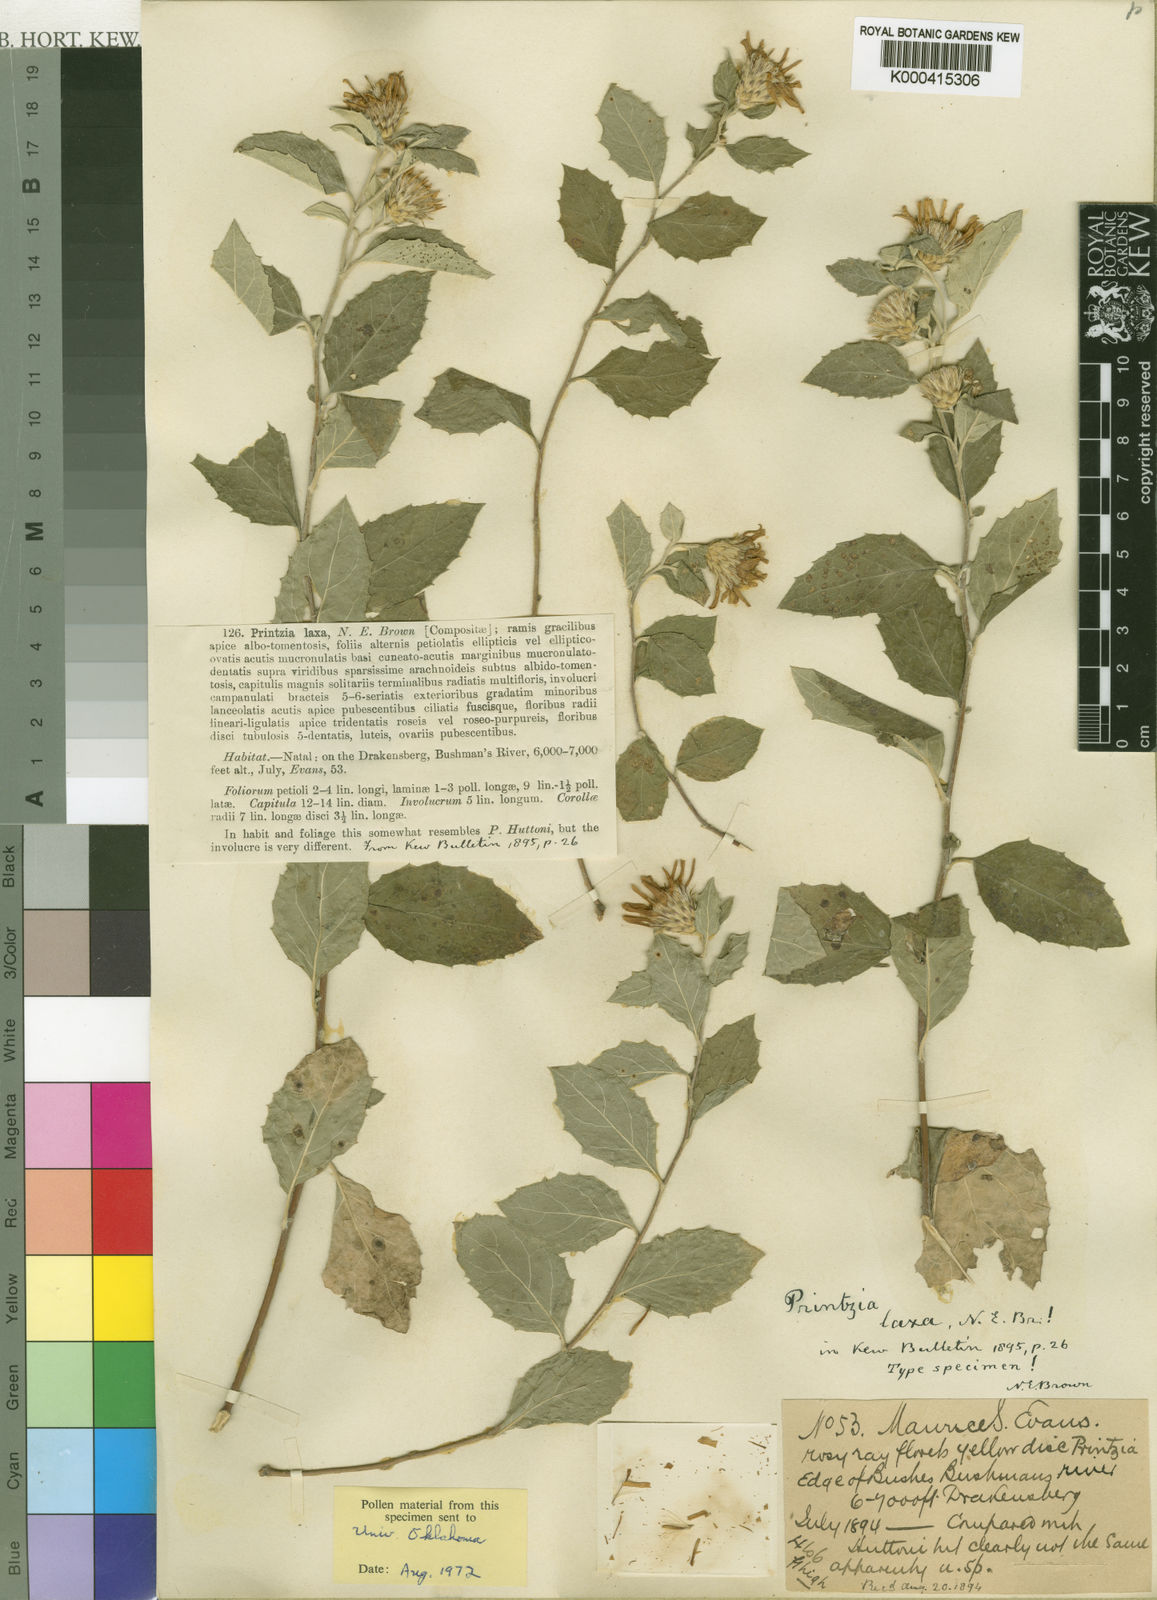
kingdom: Plantae
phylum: Tracheophyta
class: Magnoliopsida
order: Asterales
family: Asteraceae
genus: Printzia
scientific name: Printzia auriculata
